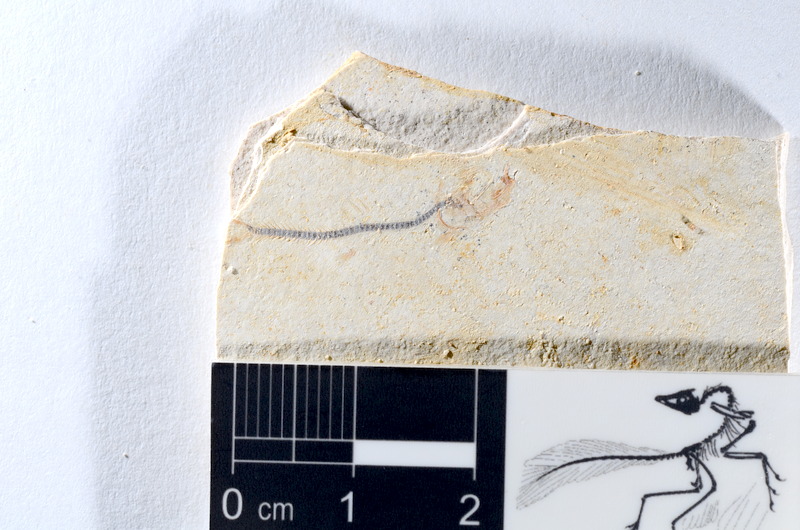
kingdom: Animalia
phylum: Chordata
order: Salmoniformes
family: Orthogonikleithridae
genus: Orthogonikleithrus
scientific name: Orthogonikleithrus hoelli
